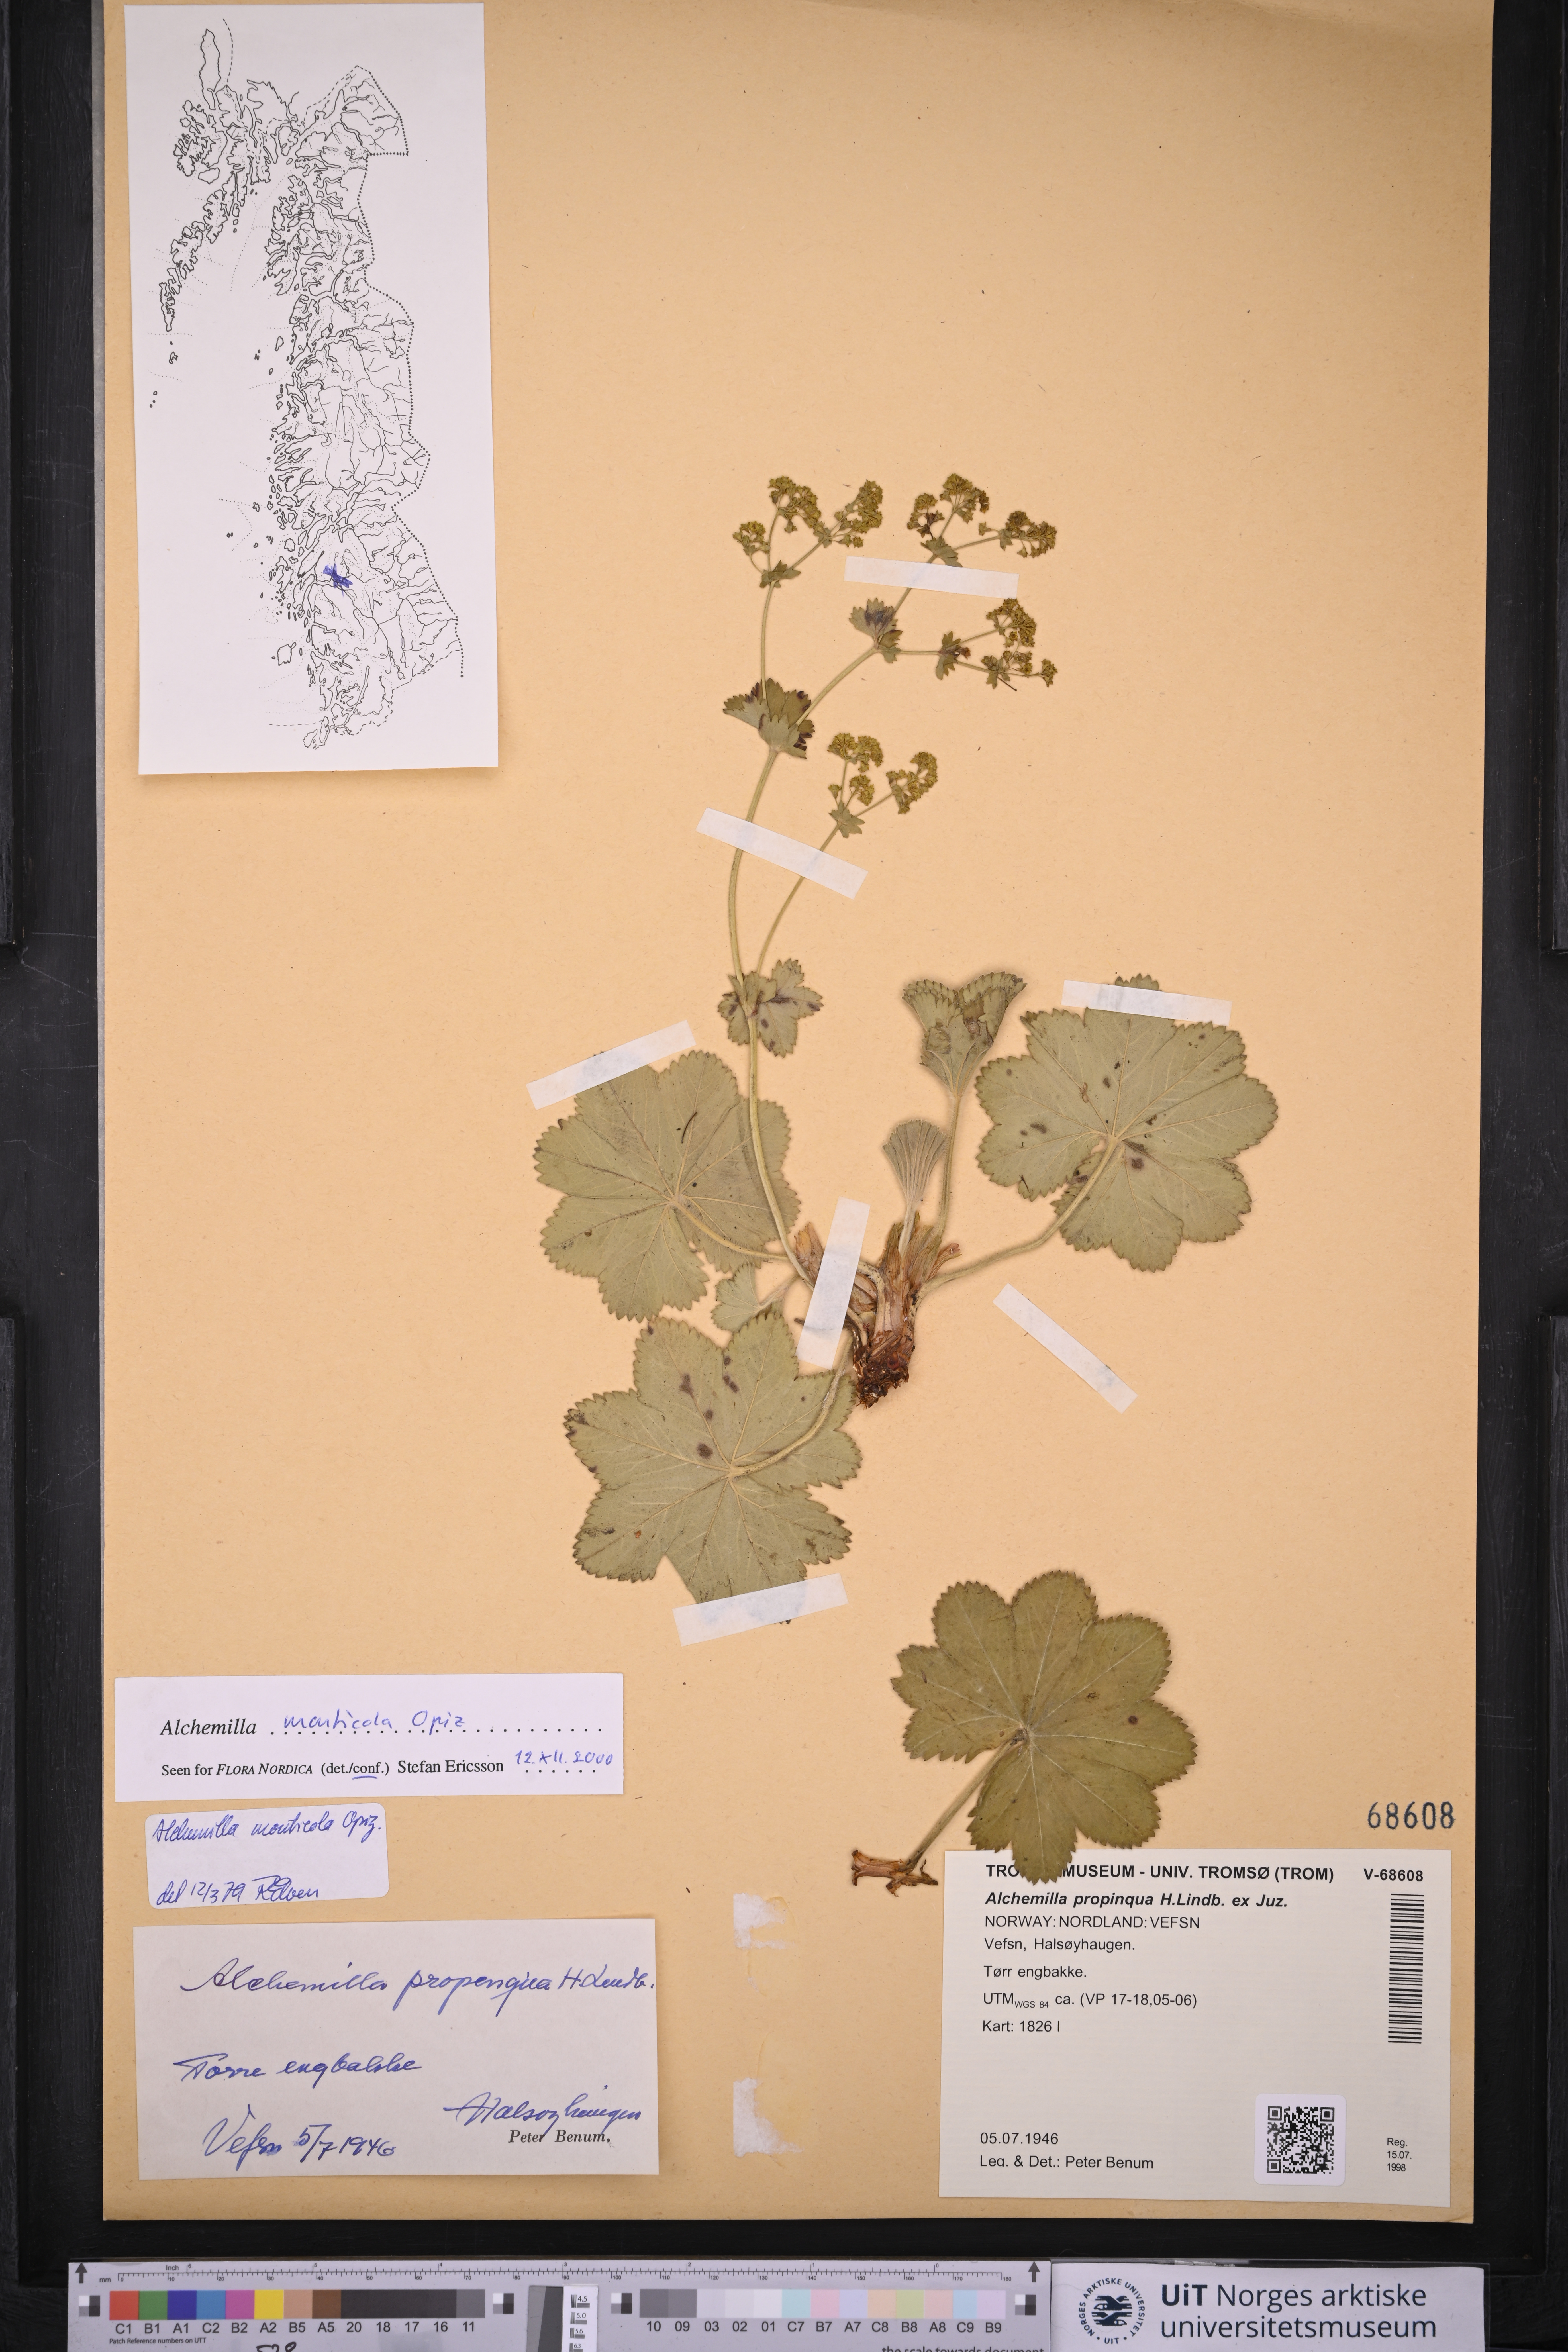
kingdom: Plantae
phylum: Tracheophyta
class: Magnoliopsida
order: Rosales
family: Rosaceae
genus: Alchemilla
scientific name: Alchemilla monticola
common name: Hairy lady's mantle
